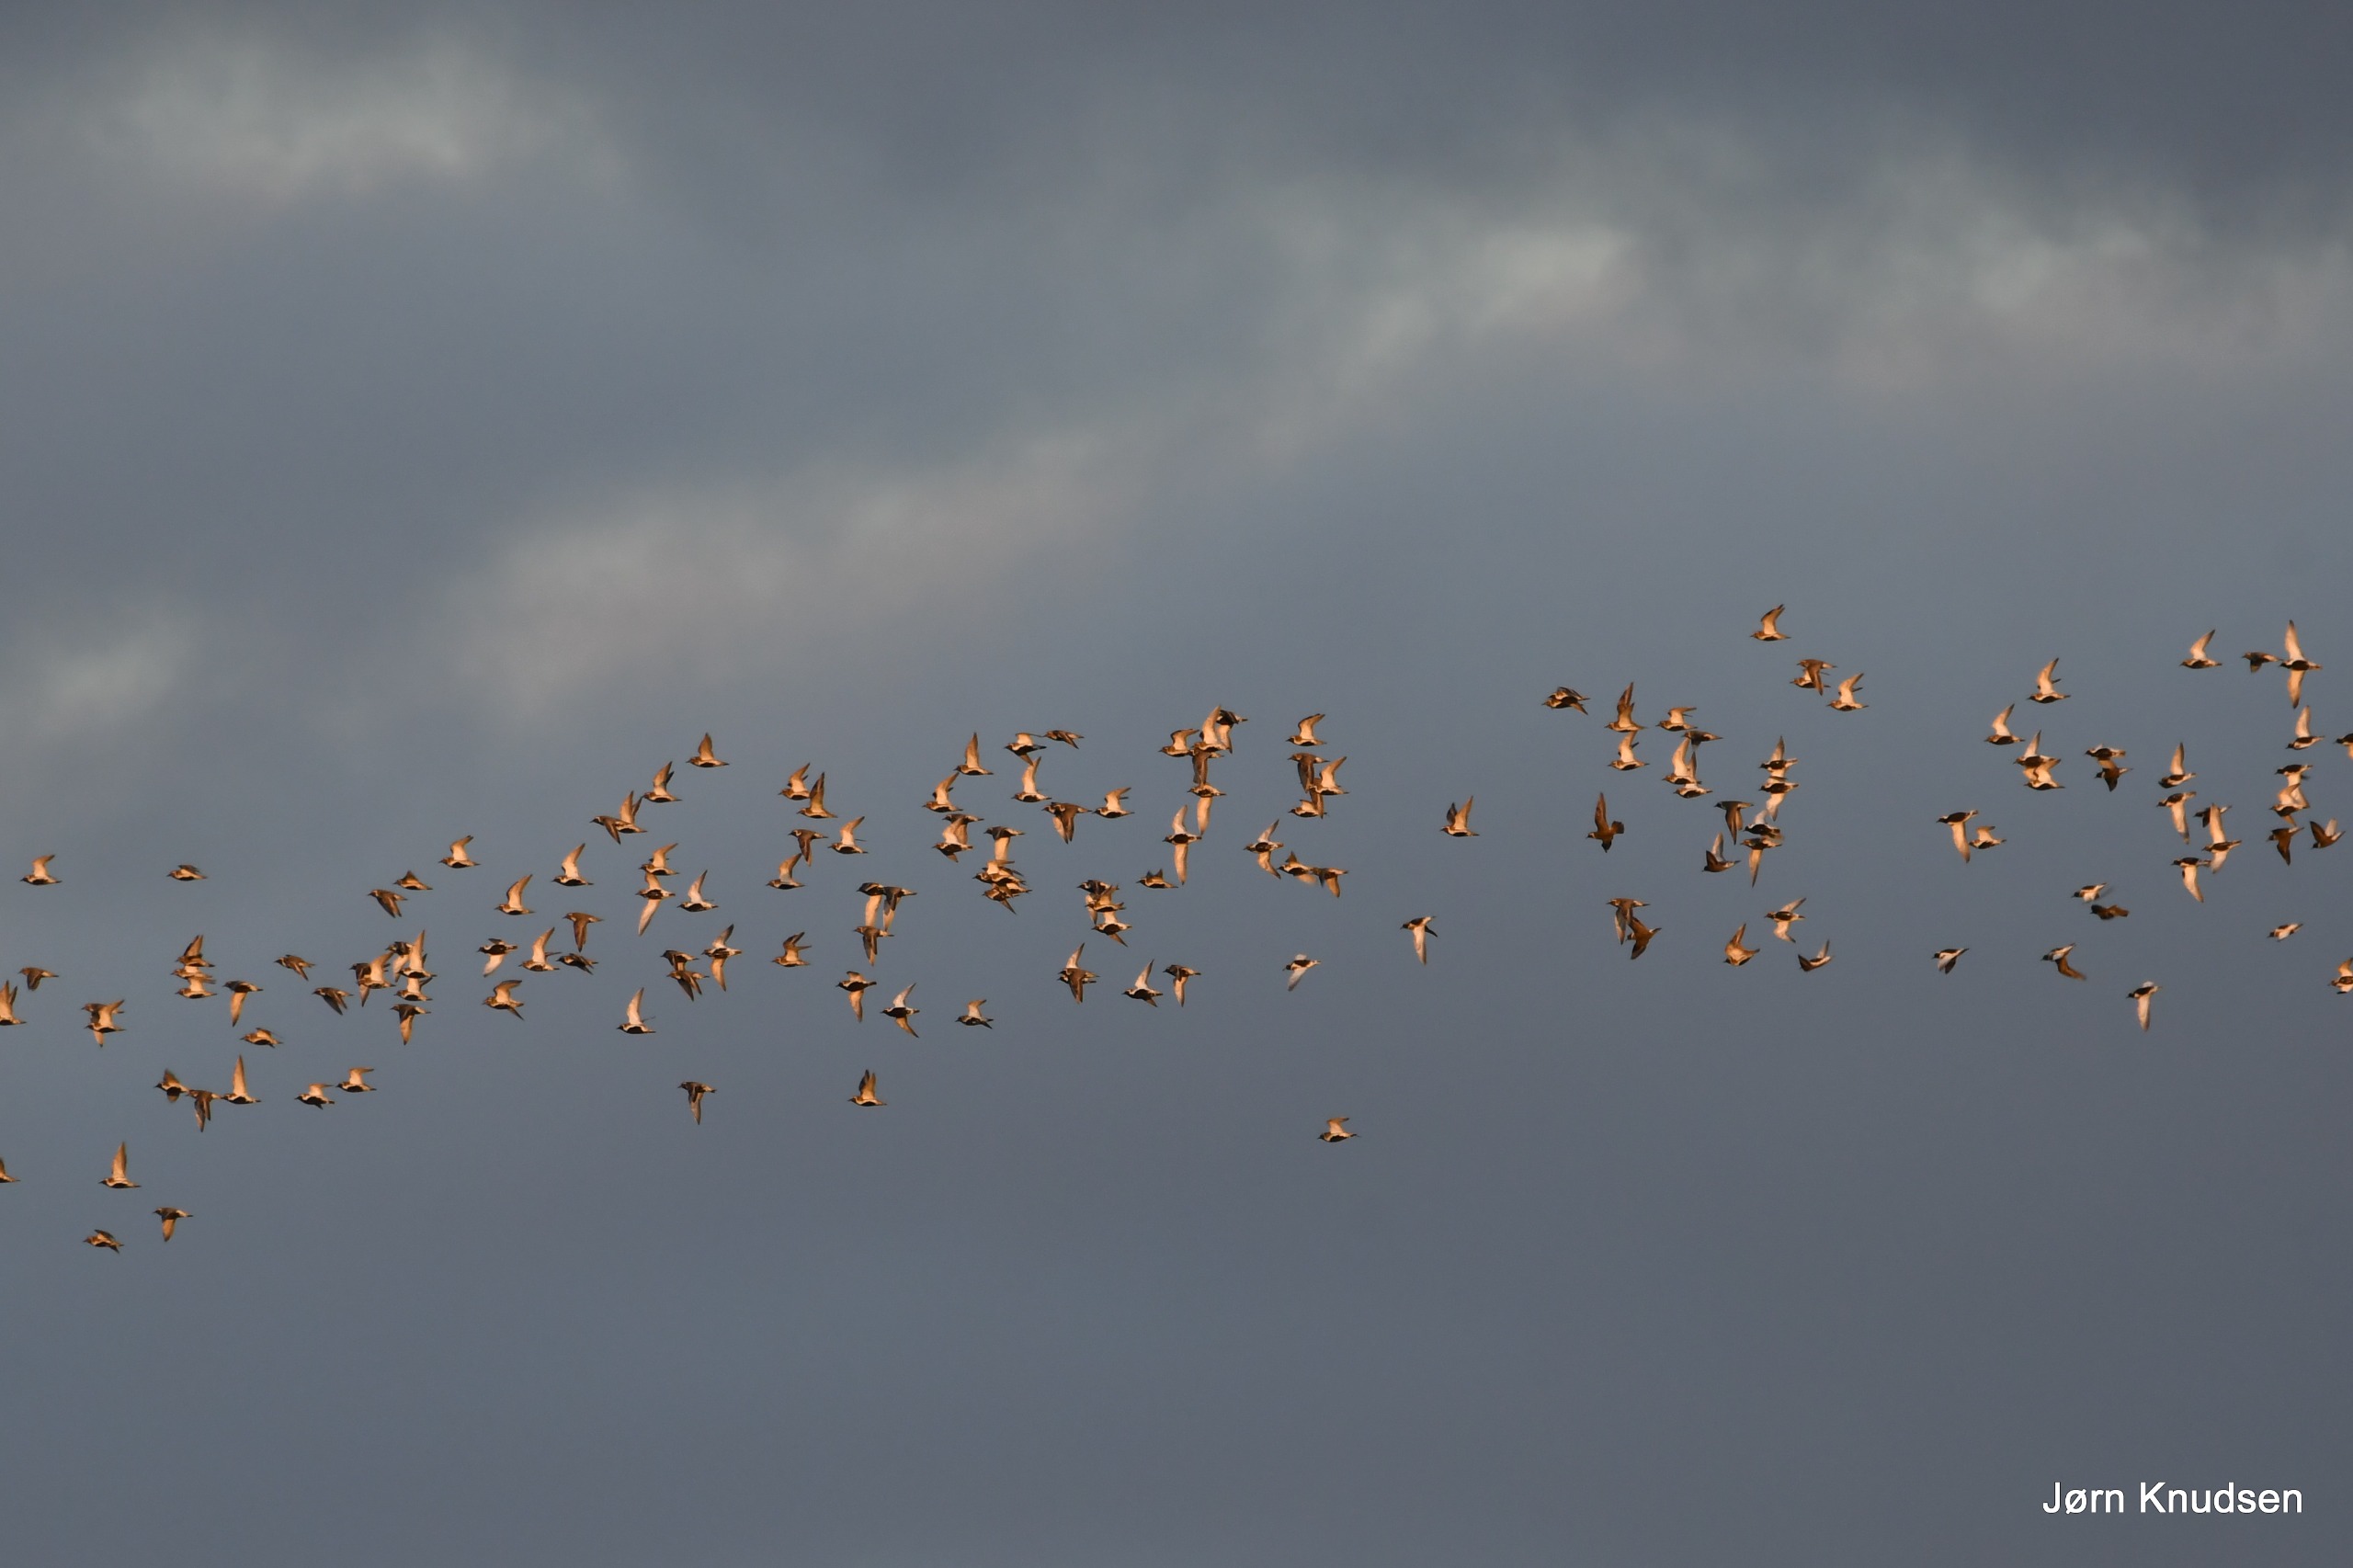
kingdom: Animalia
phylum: Chordata
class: Aves
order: Charadriiformes
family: Charadriidae
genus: Pluvialis
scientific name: Pluvialis apricaria
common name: Hjejle
